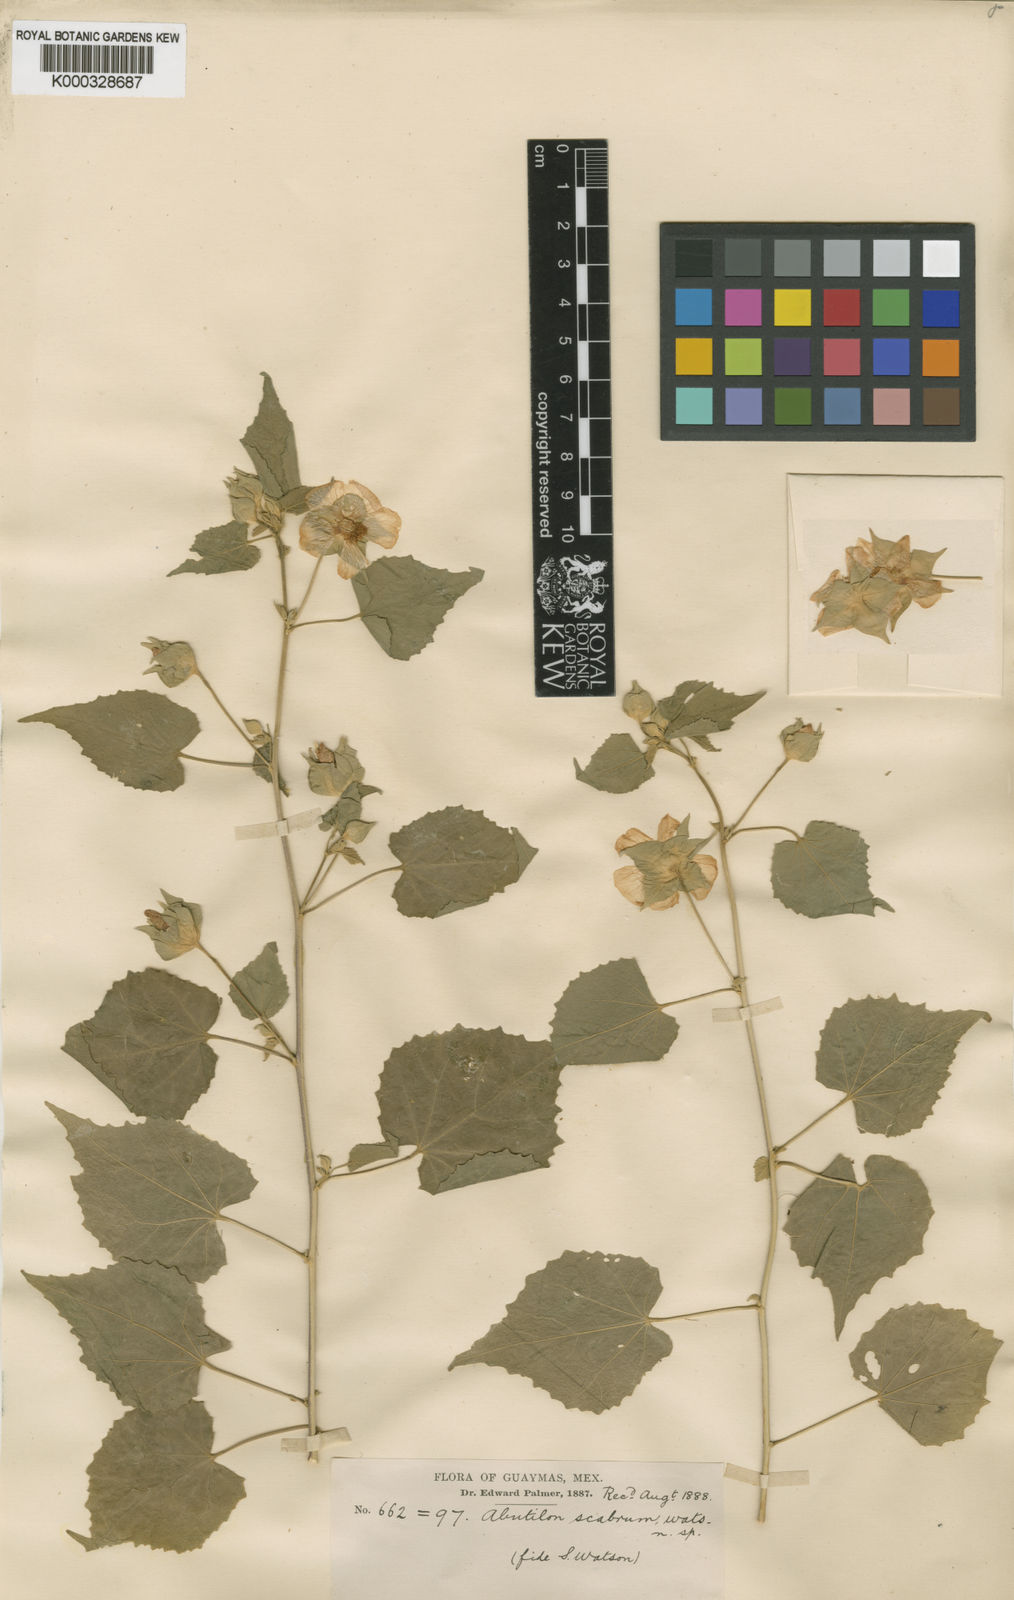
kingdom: Plantae
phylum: Tracheophyta
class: Magnoliopsida
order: Malvales
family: Malvaceae
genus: Abutilon
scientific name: Abutilon abutiloides
